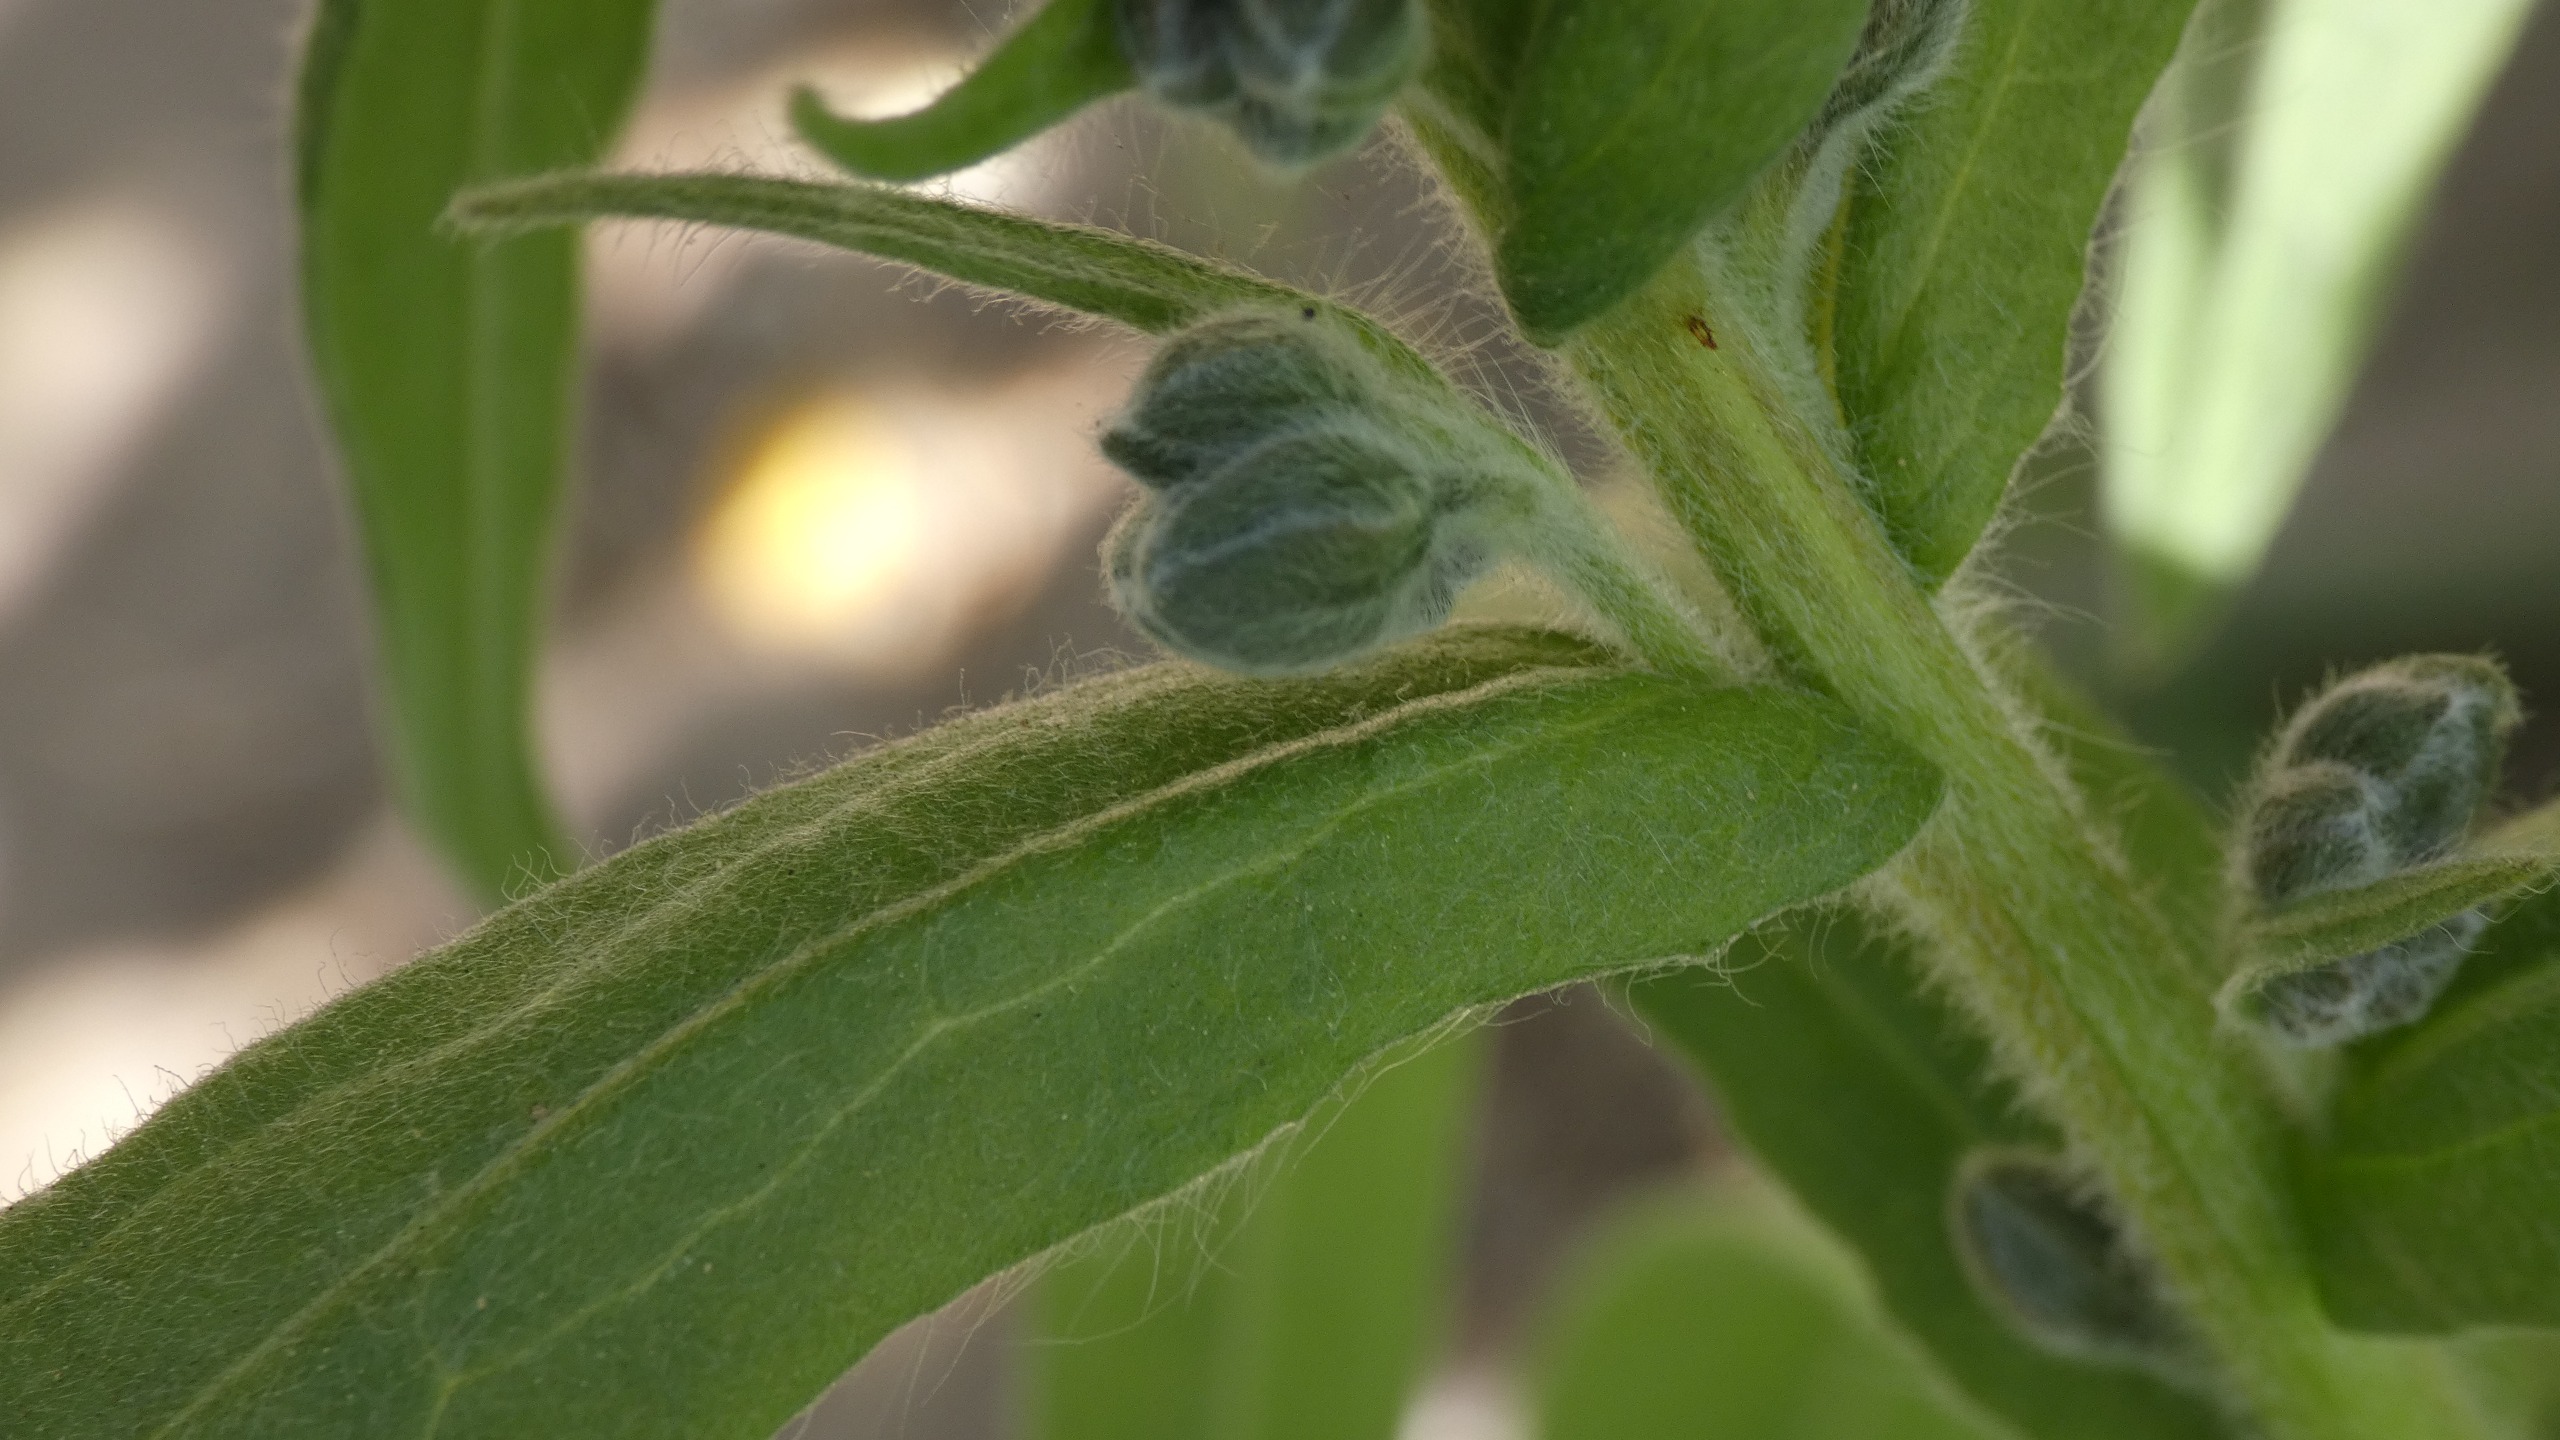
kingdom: Plantae
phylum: Tracheophyta
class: Magnoliopsida
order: Boraginales
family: Boraginaceae
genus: Cynoglossum
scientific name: Cynoglossum officinale
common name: Hundetunge
